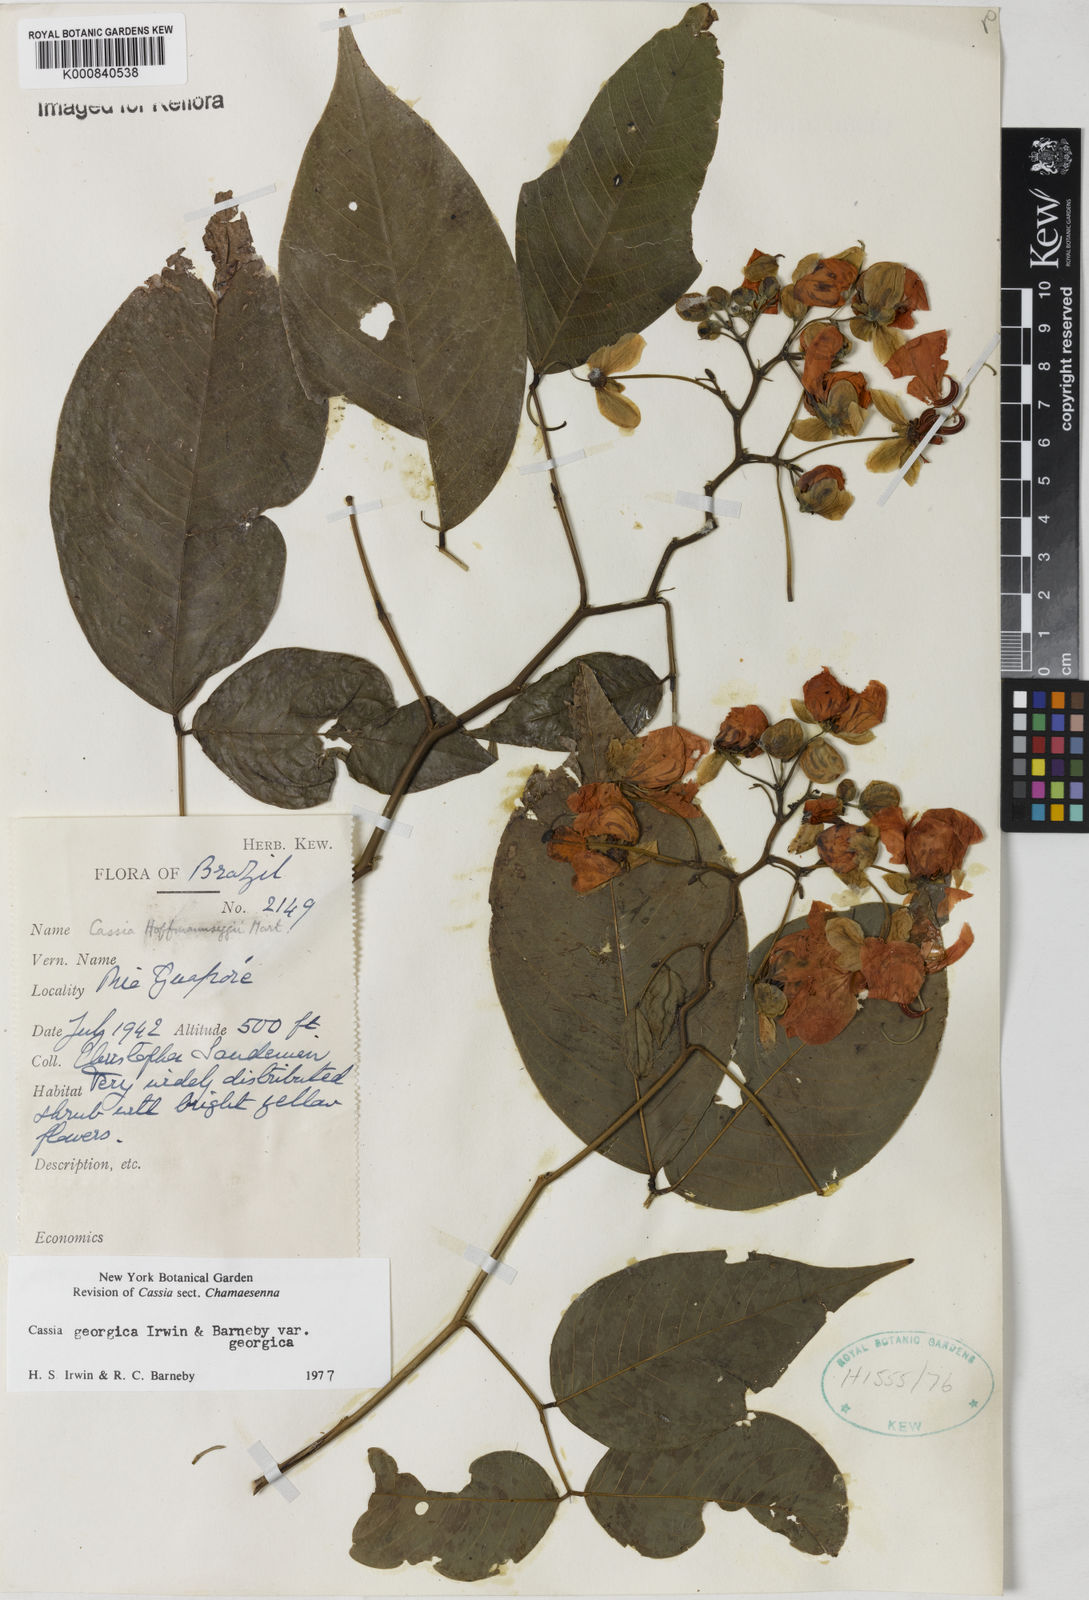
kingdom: Plantae
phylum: Tracheophyta
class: Magnoliopsida
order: Fabales
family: Fabaceae
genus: Senna
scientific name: Senna georgica
